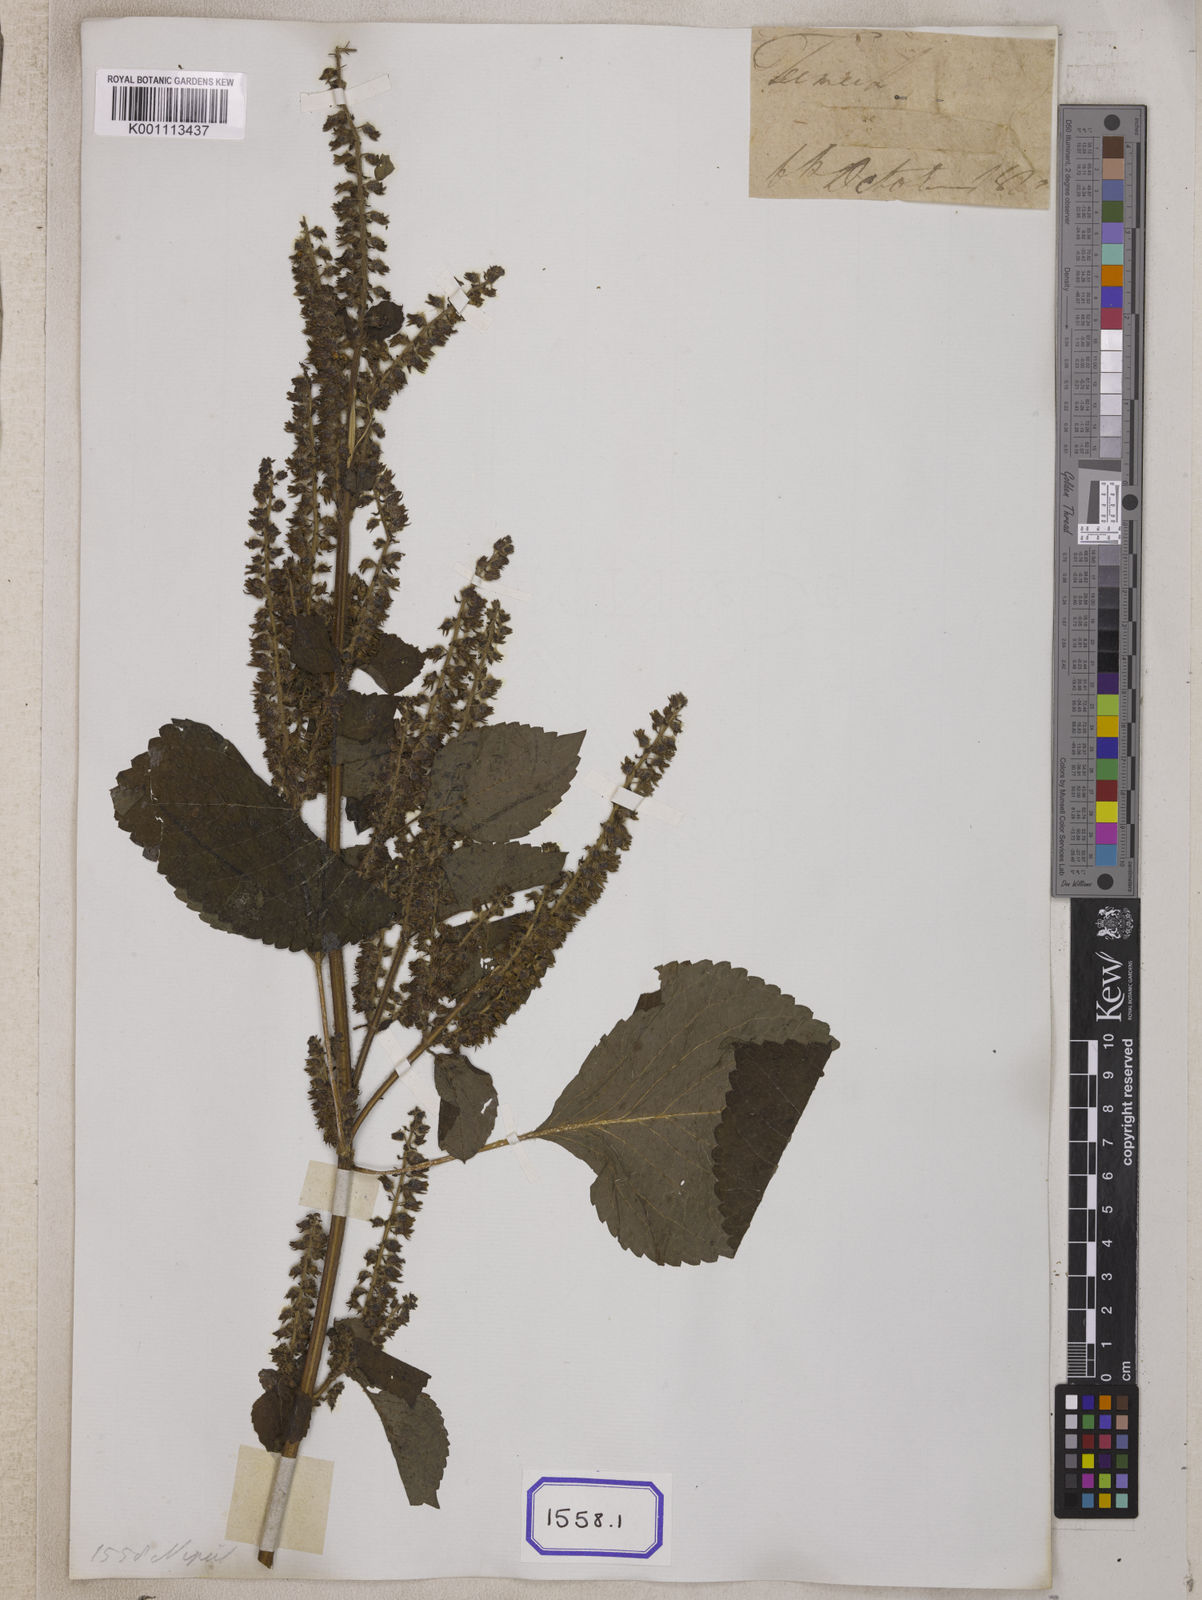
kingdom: Plantae
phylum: Tracheophyta
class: Magnoliopsida
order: Lamiales
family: Lamiaceae
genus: Perilla
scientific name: Perilla frutescens
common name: Perilla
